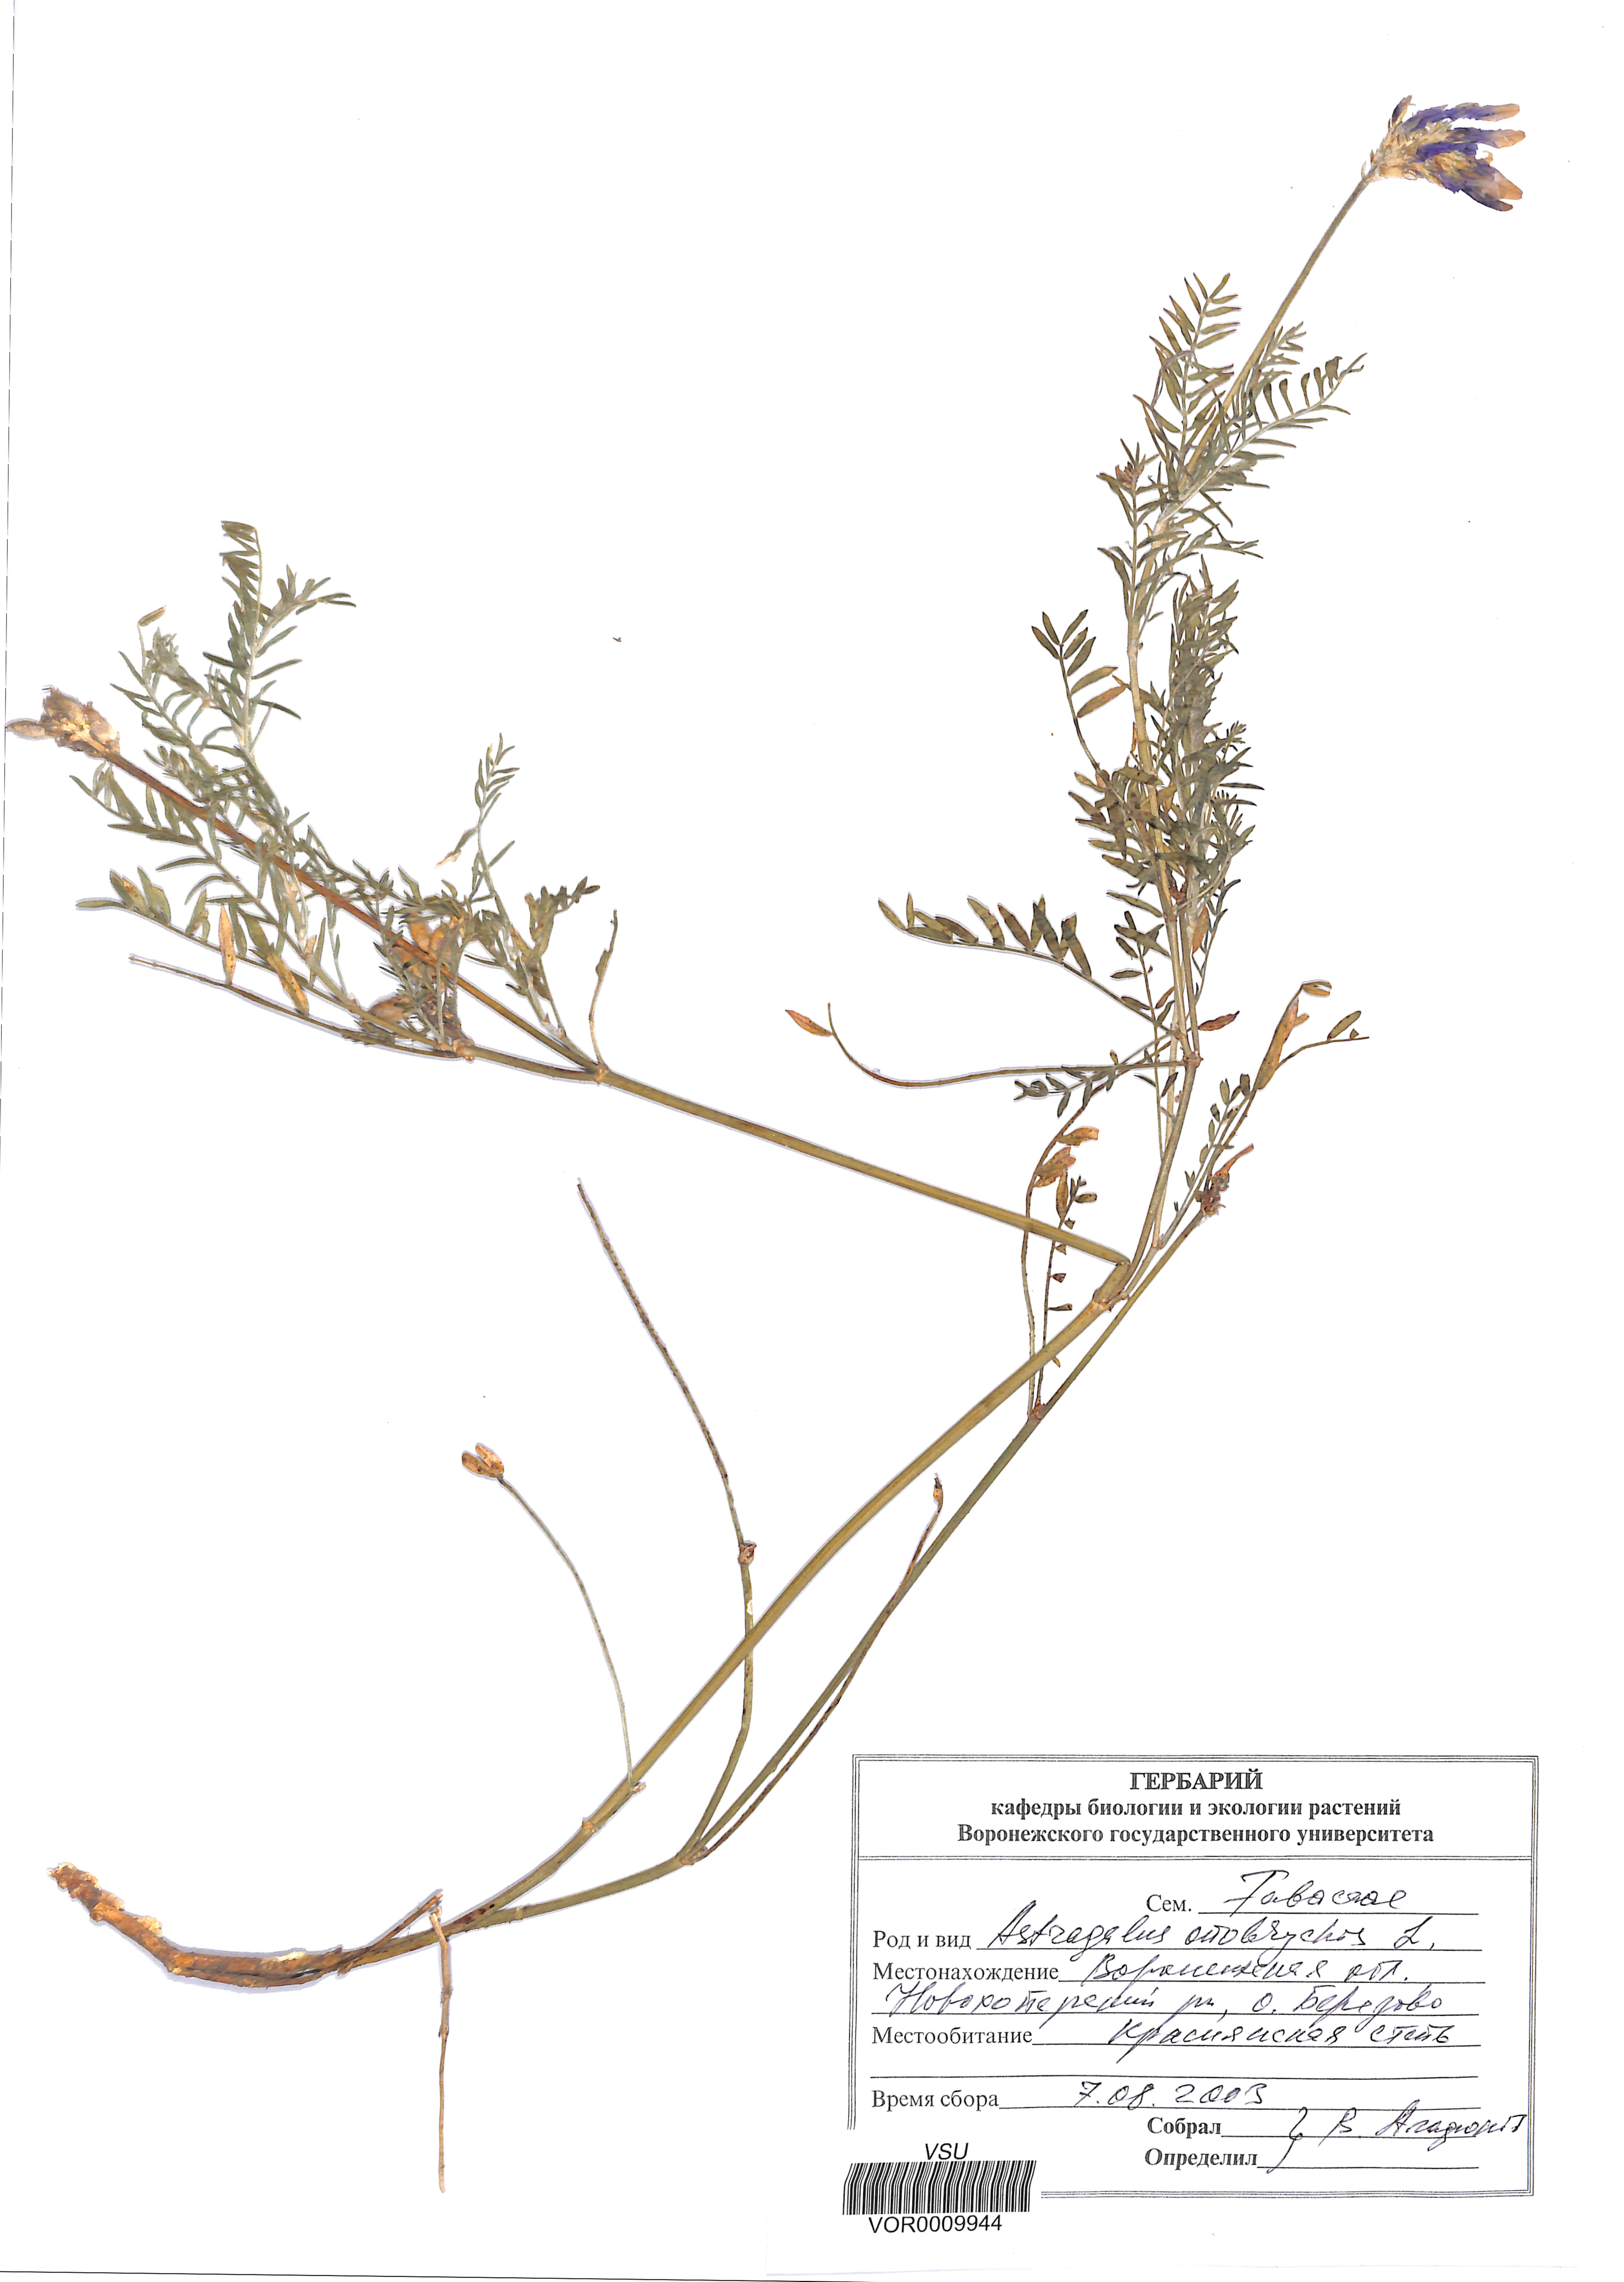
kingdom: Plantae
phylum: Tracheophyta
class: Magnoliopsida
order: Fabales
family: Fabaceae
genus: Astragalus
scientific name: Astragalus onobrychis
